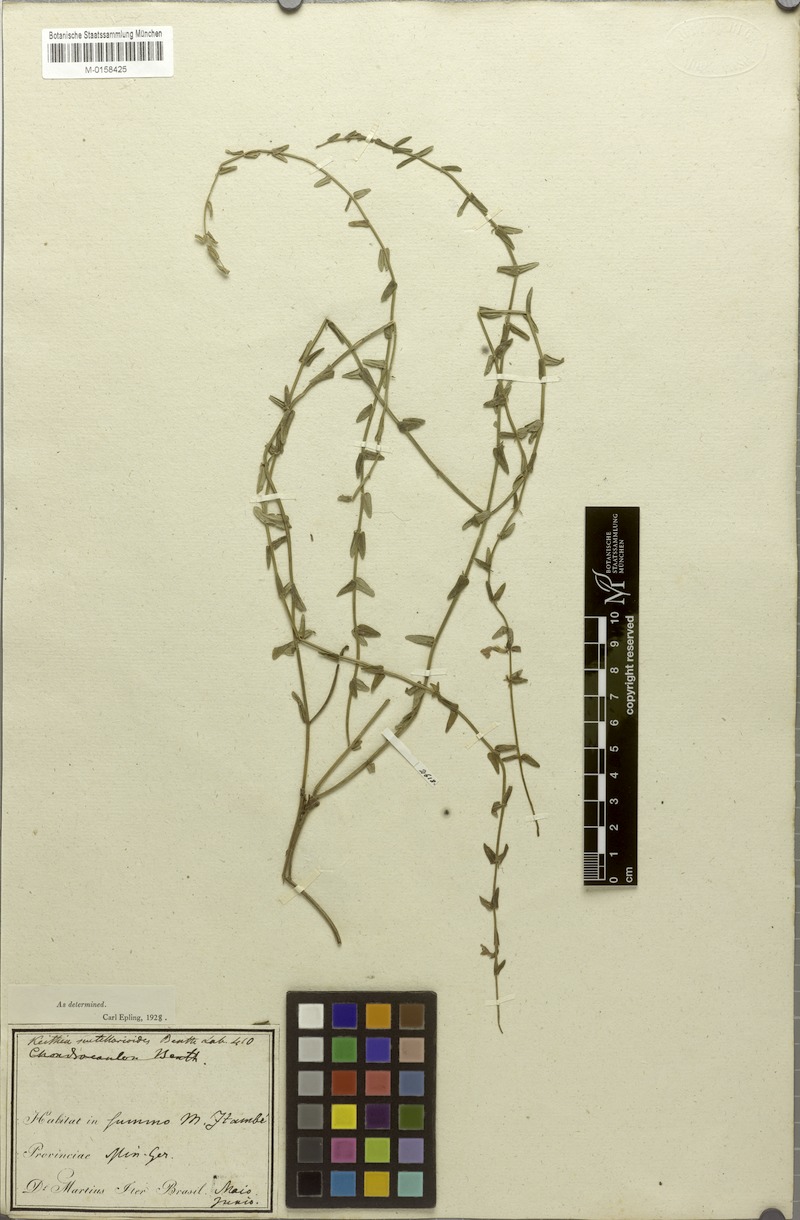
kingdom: Plantae
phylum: Tracheophyta
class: Magnoliopsida
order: Lamiales
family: Lamiaceae
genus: Hoehnea
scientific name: Hoehnea scutellarioides
